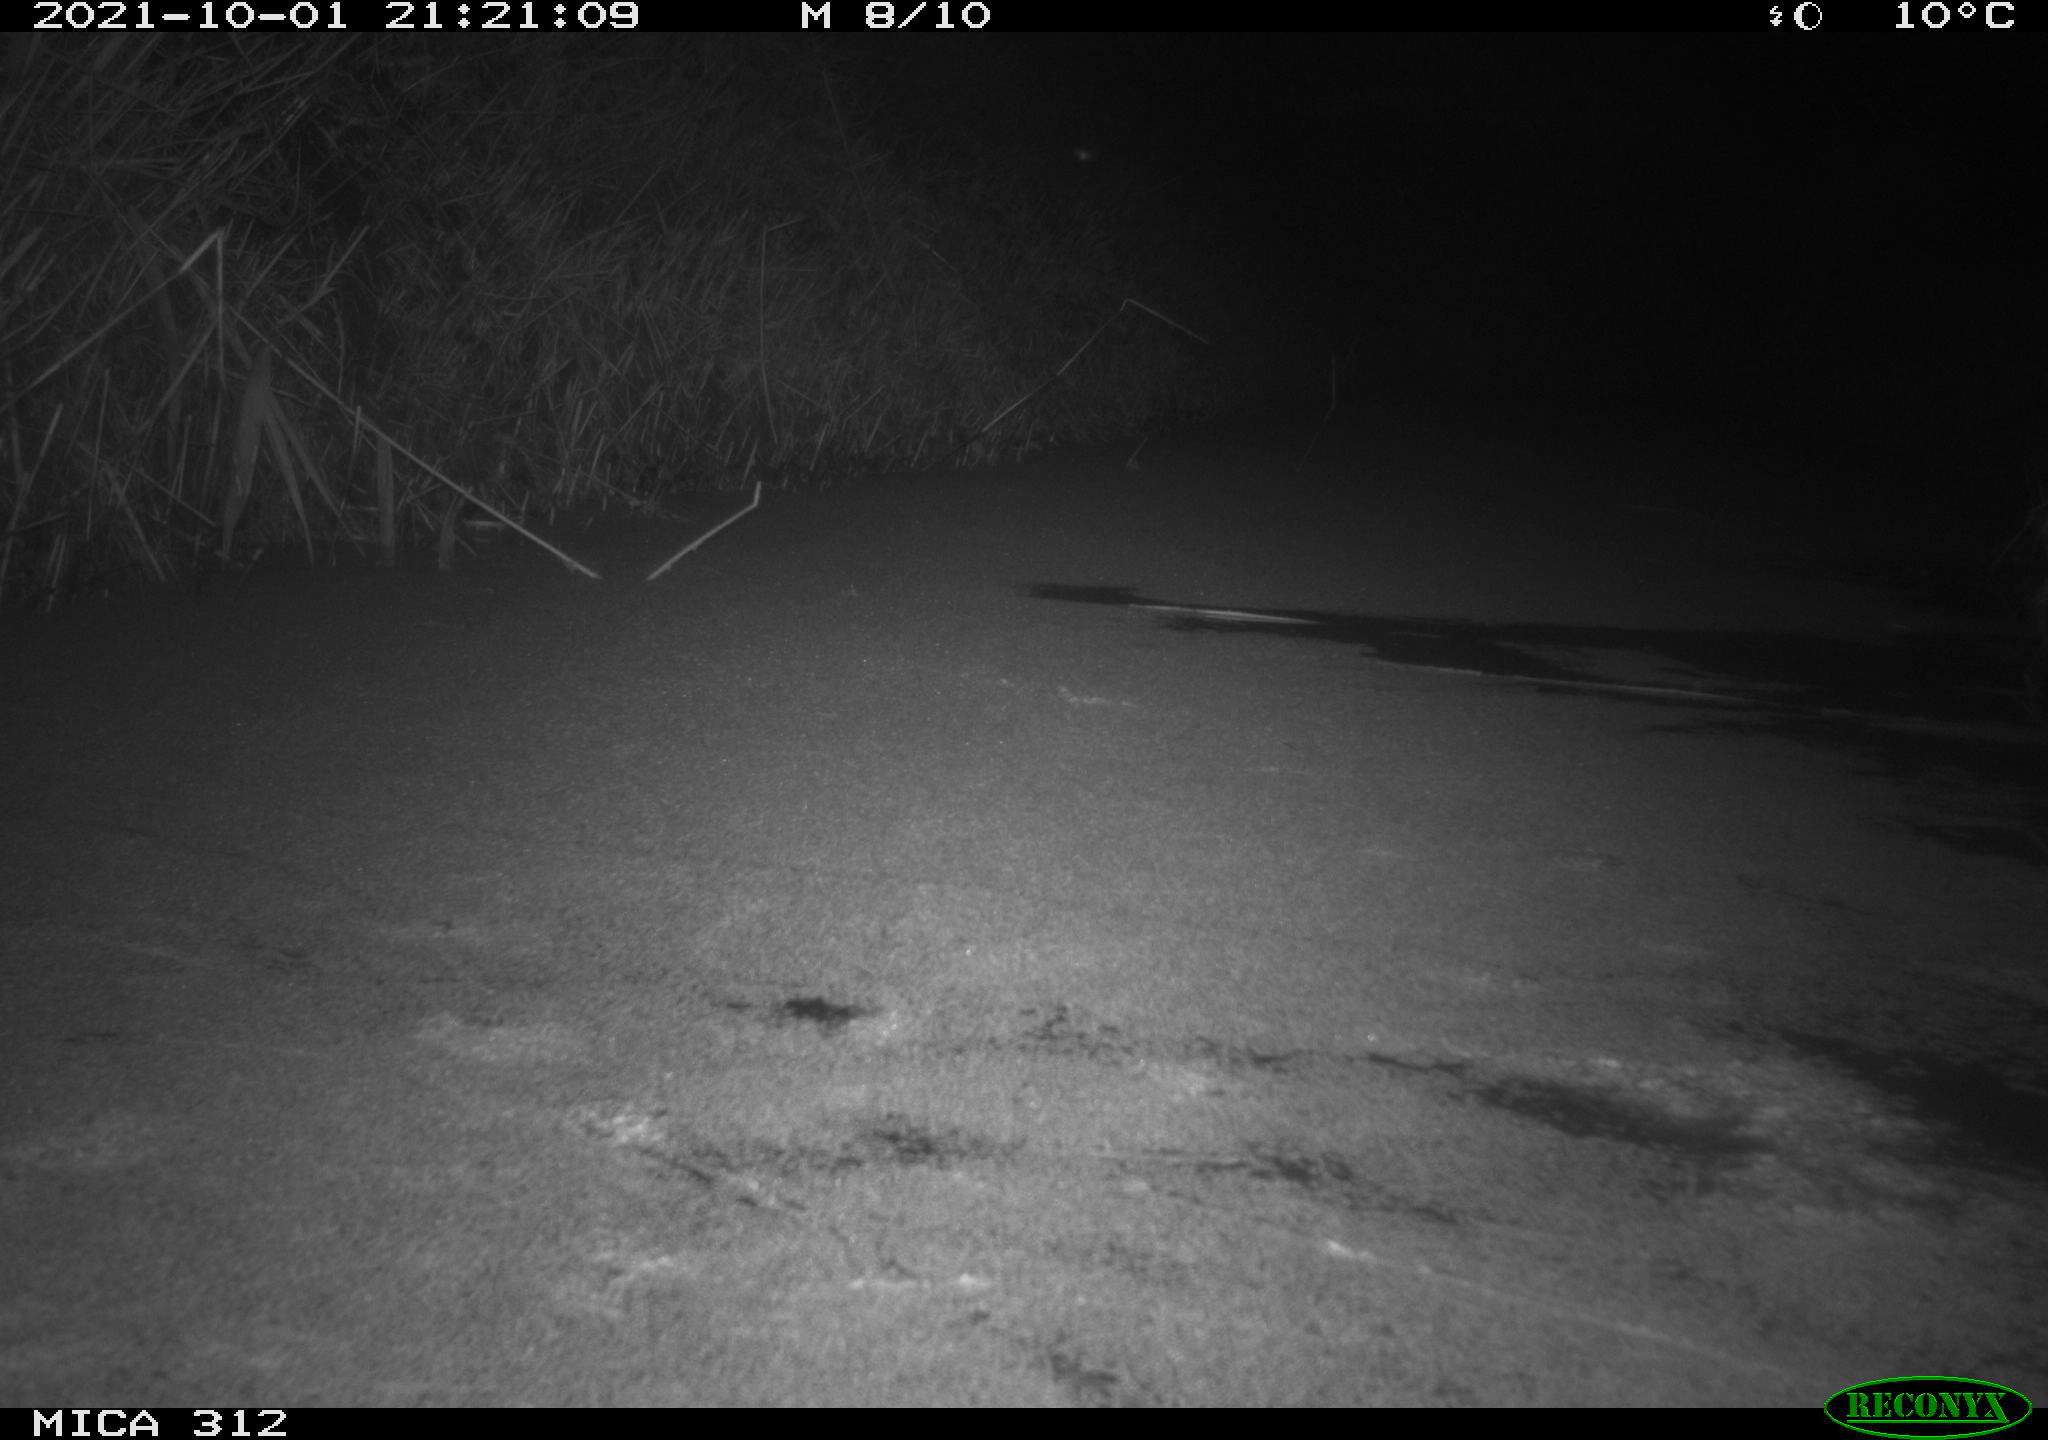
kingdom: Animalia
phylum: Chordata
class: Mammalia
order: Rodentia
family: Muridae
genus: Rattus
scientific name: Rattus norvegicus
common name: Brown rat
